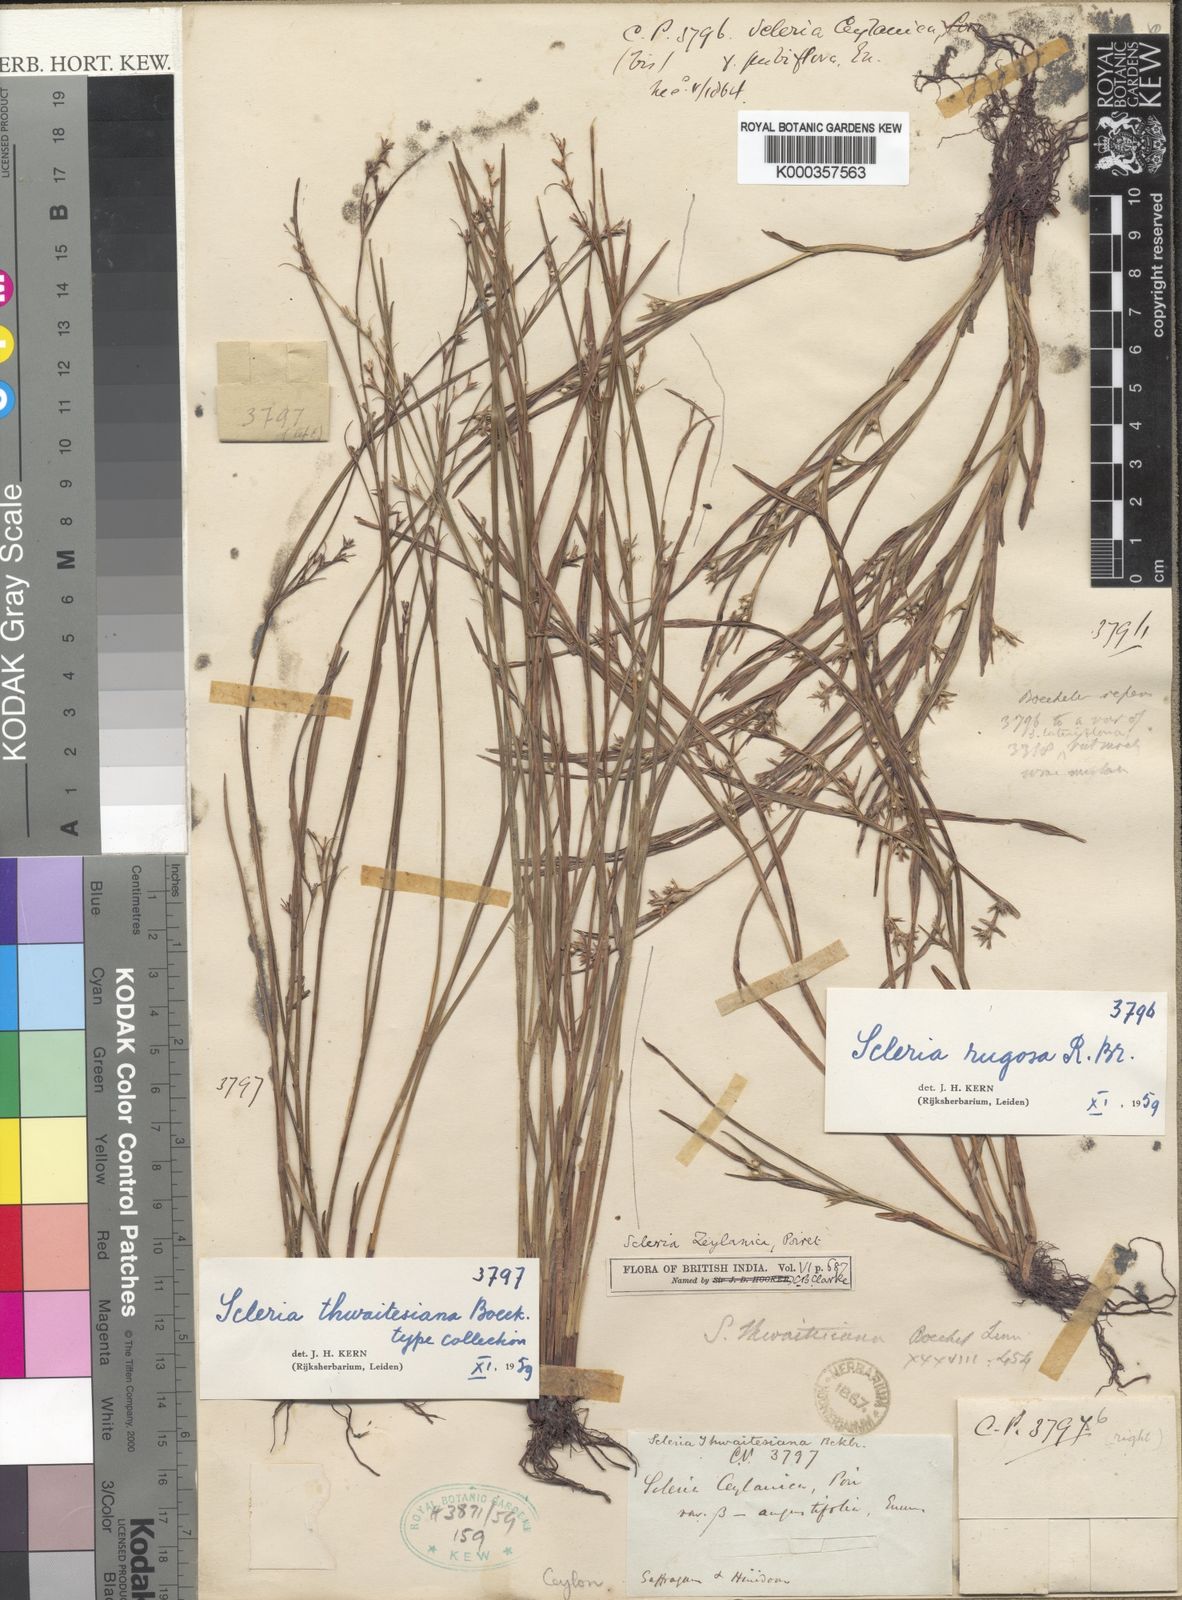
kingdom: Plantae
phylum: Tracheophyta
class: Liliopsida
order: Poales
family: Cyperaceae
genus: Scleria
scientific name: Scleria rugosa
